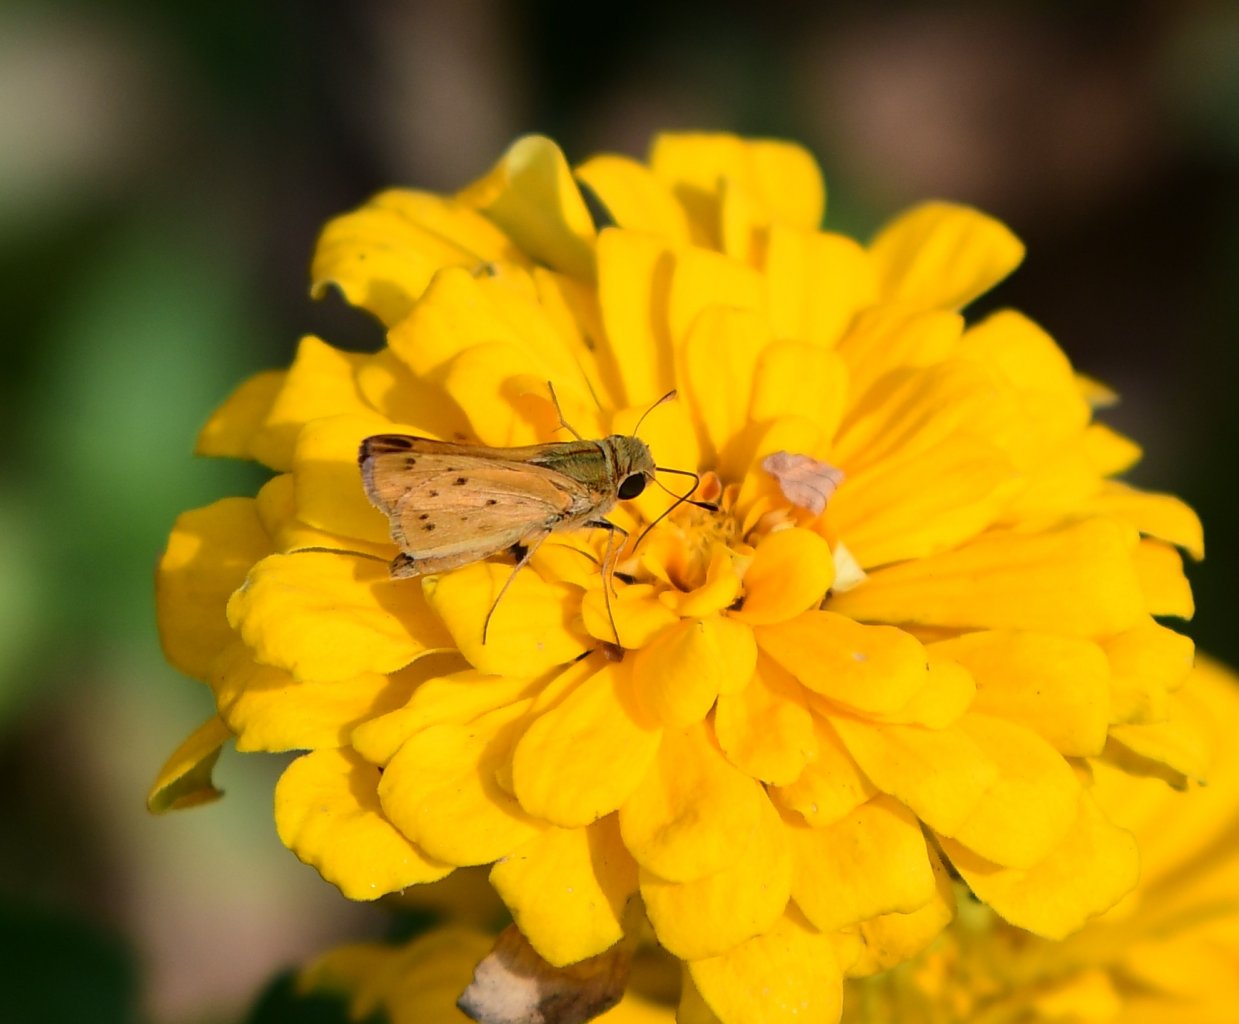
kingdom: Animalia
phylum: Arthropoda
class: Insecta
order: Lepidoptera
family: Hesperiidae
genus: Hylephila
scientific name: Hylephila phyleus
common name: Fiery Skipper
